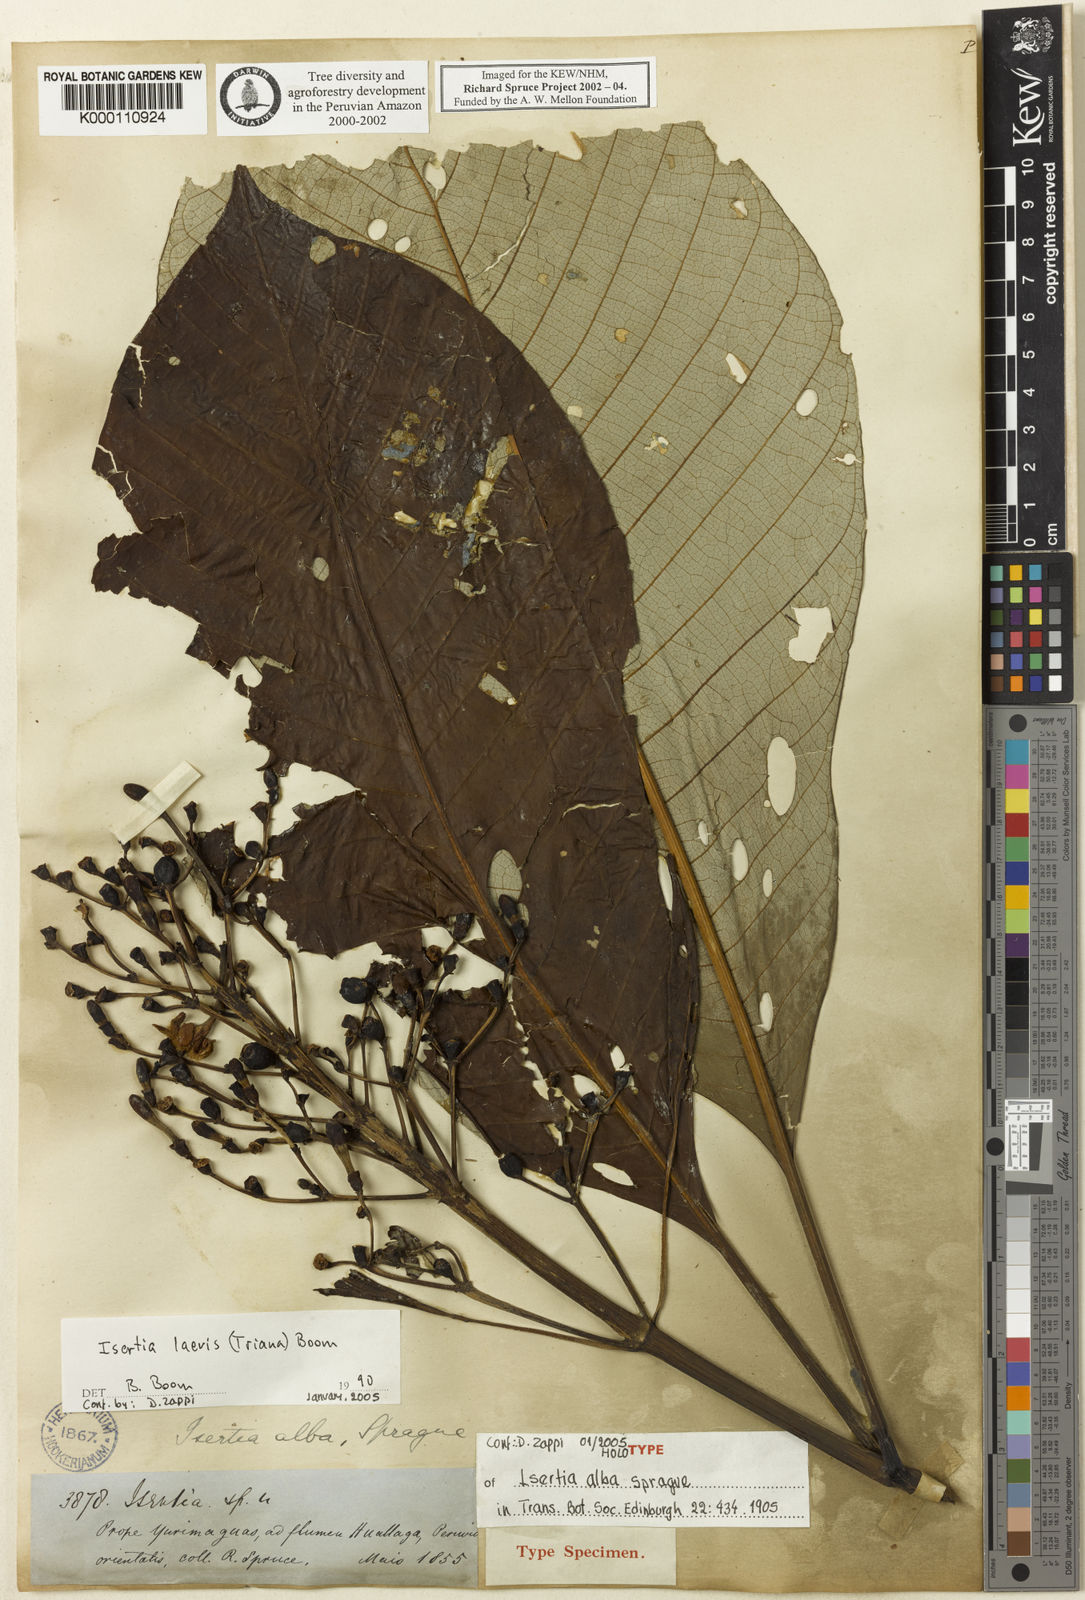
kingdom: Plantae
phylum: Tracheophyta
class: Magnoliopsida
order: Gentianales
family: Rubiaceae
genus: Isertia
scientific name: Isertia laevis
